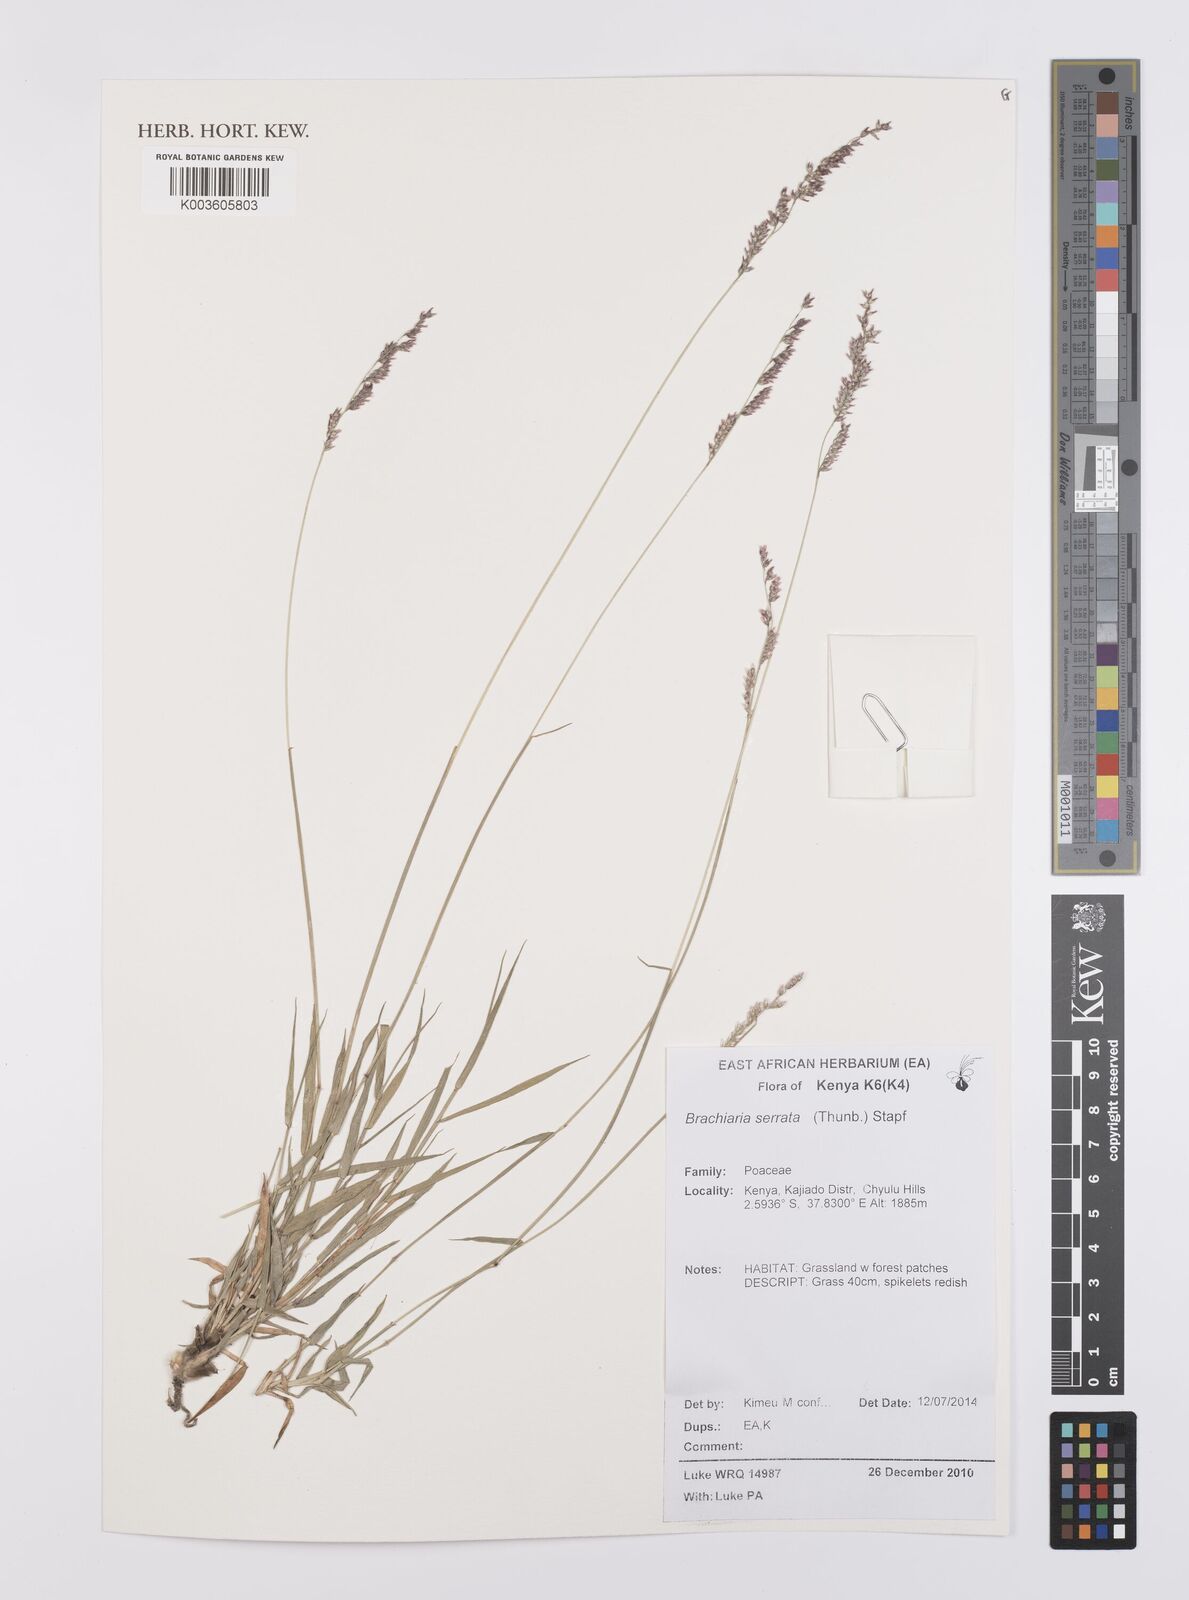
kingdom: Plantae
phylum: Tracheophyta
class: Liliopsida
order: Poales
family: Poaceae
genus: Urochloa
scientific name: Urochloa serrata
